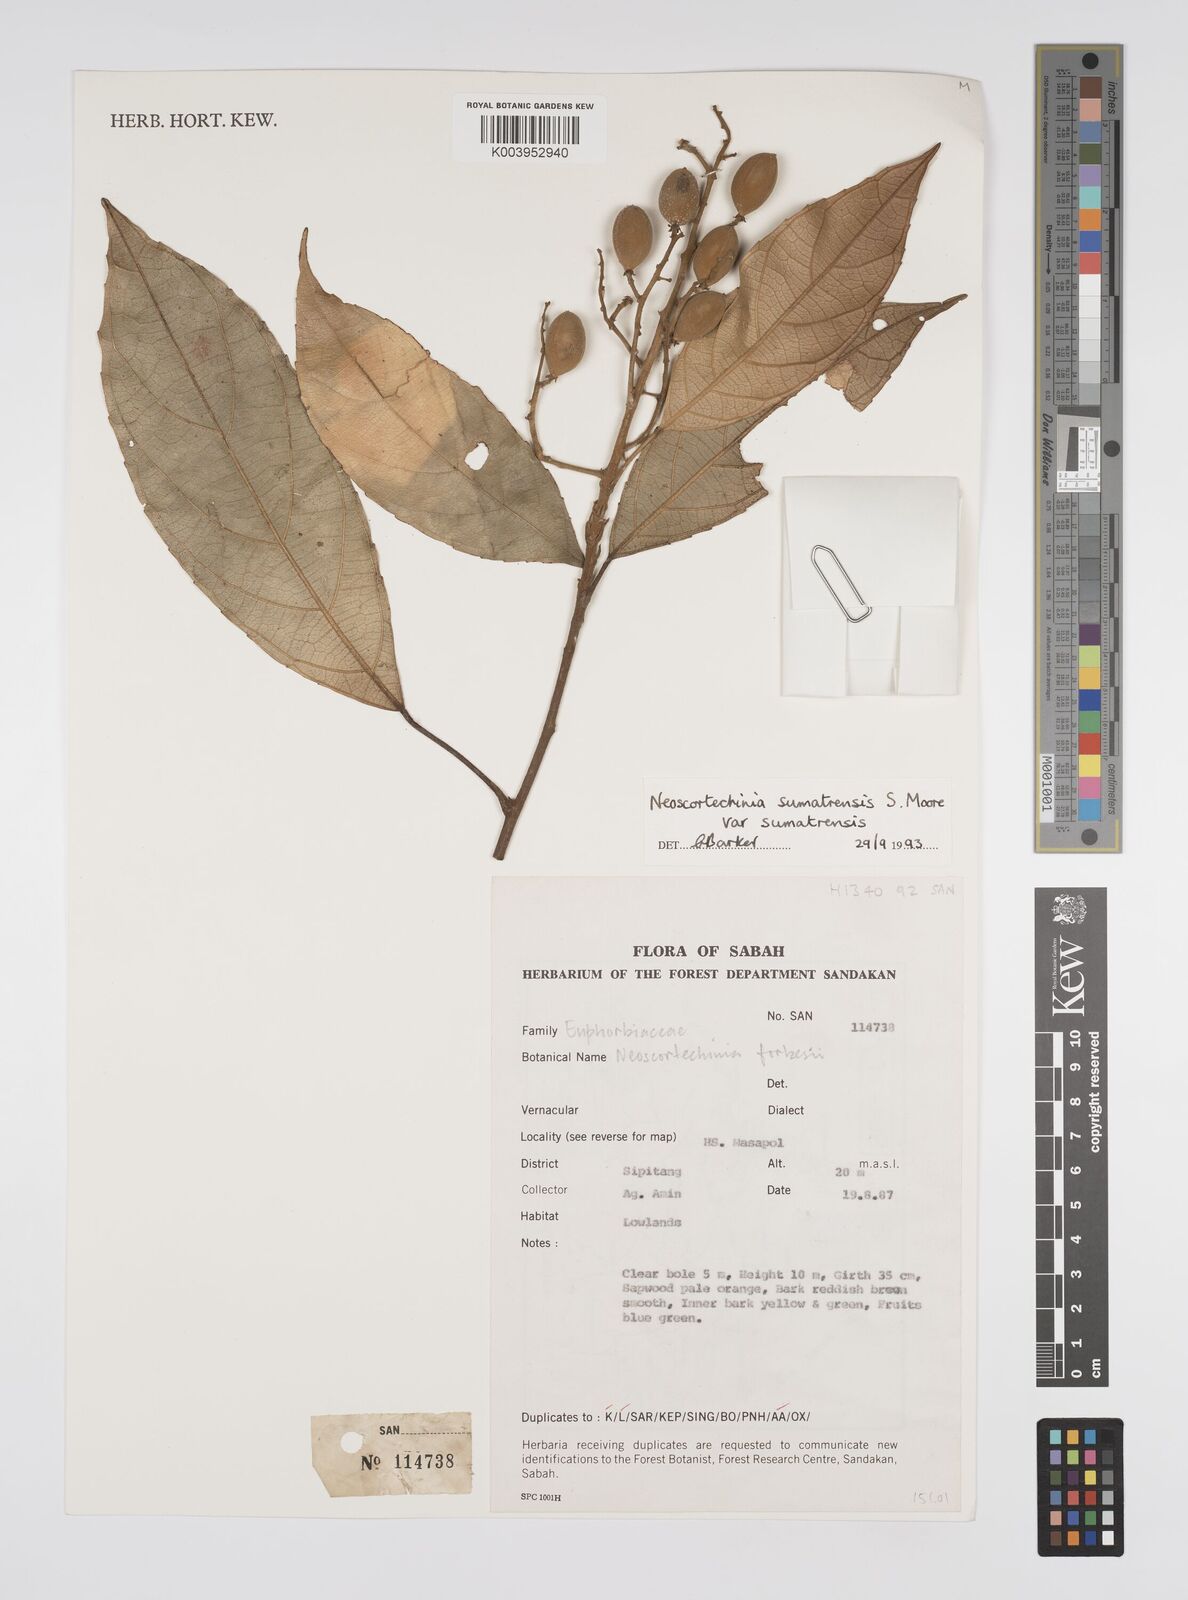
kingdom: Plantae
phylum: Tracheophyta
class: Magnoliopsida
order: Malpighiales
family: Euphorbiaceae
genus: Neoscortechinia
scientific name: Neoscortechinia sumatrensis
